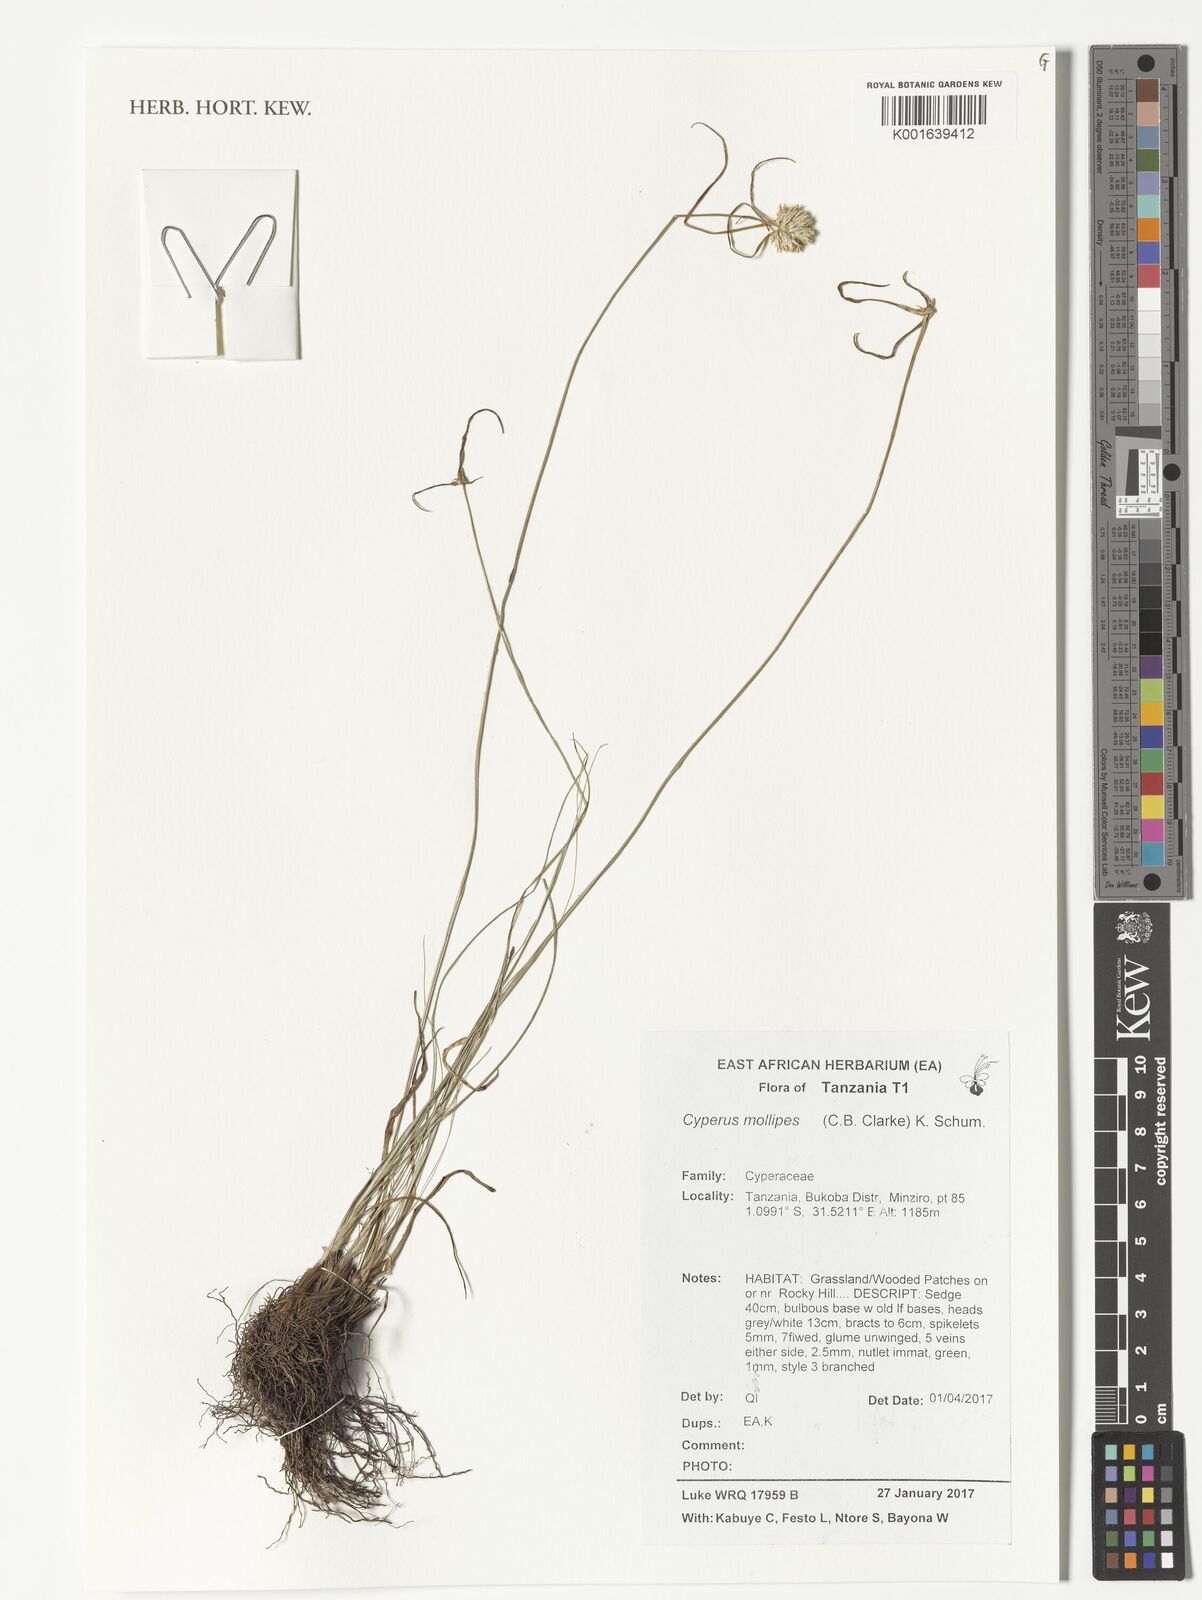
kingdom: Plantae
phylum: Tracheophyta
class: Liliopsida
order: Poales
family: Cyperaceae
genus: Cyperus
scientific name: Cyperus mollipes
